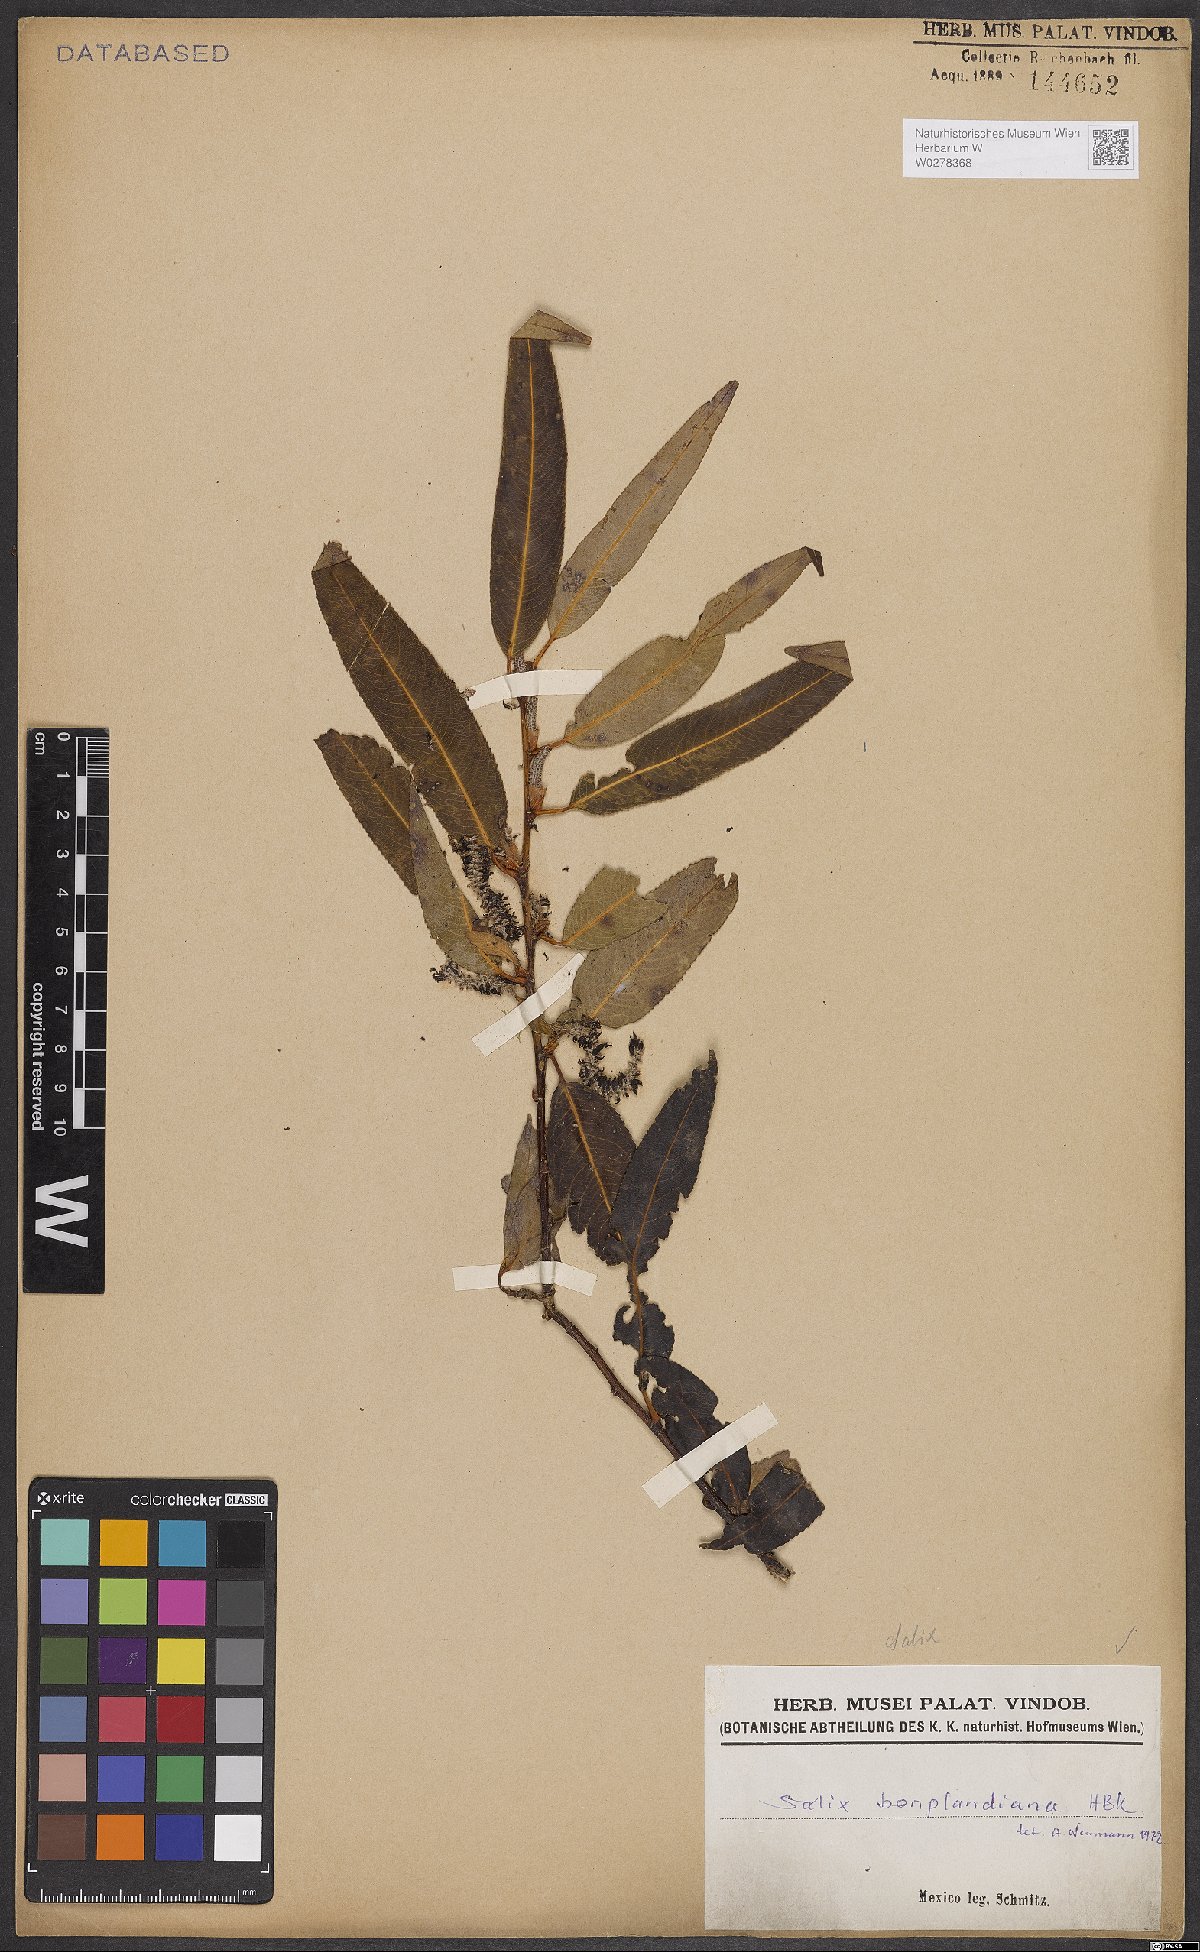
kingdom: Plantae
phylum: Tracheophyta
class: Magnoliopsida
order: Malpighiales
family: Salicaceae
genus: Salix
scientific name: Salix bonplandiana
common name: Bonpland’s willow
